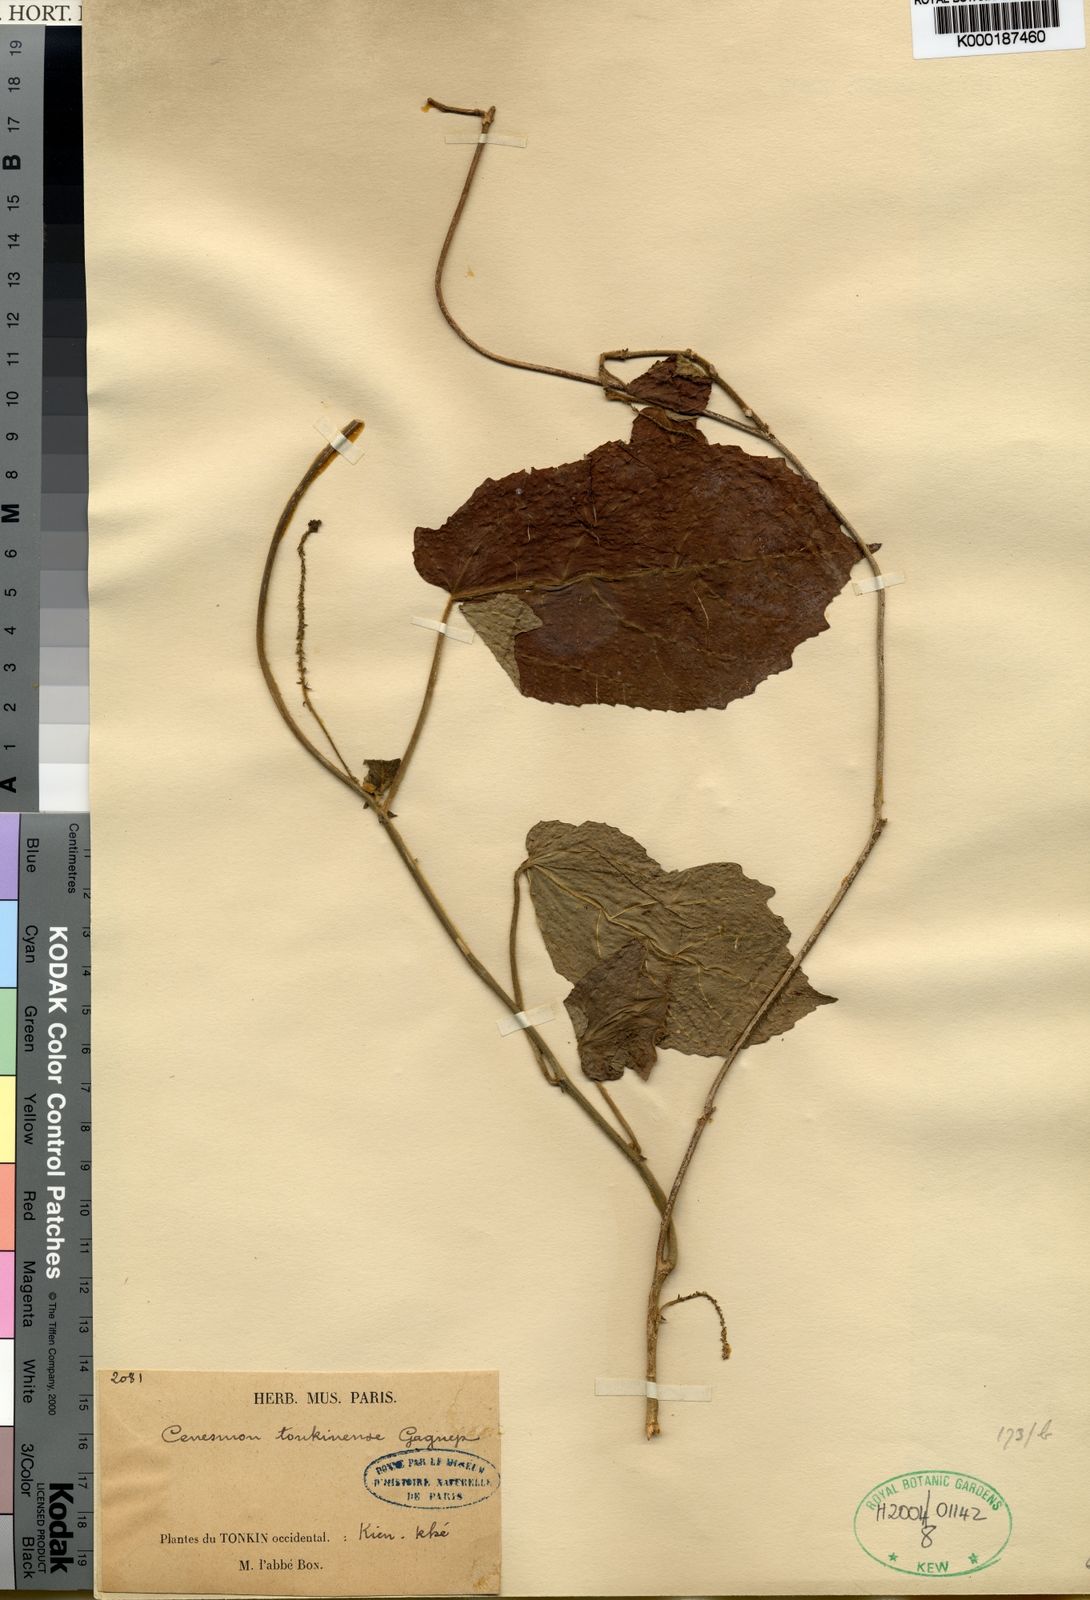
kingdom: Plantae
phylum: Tracheophyta
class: Magnoliopsida
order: Malpighiales
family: Euphorbiaceae
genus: Cnesmone
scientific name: Cnesmone tonkinensis
